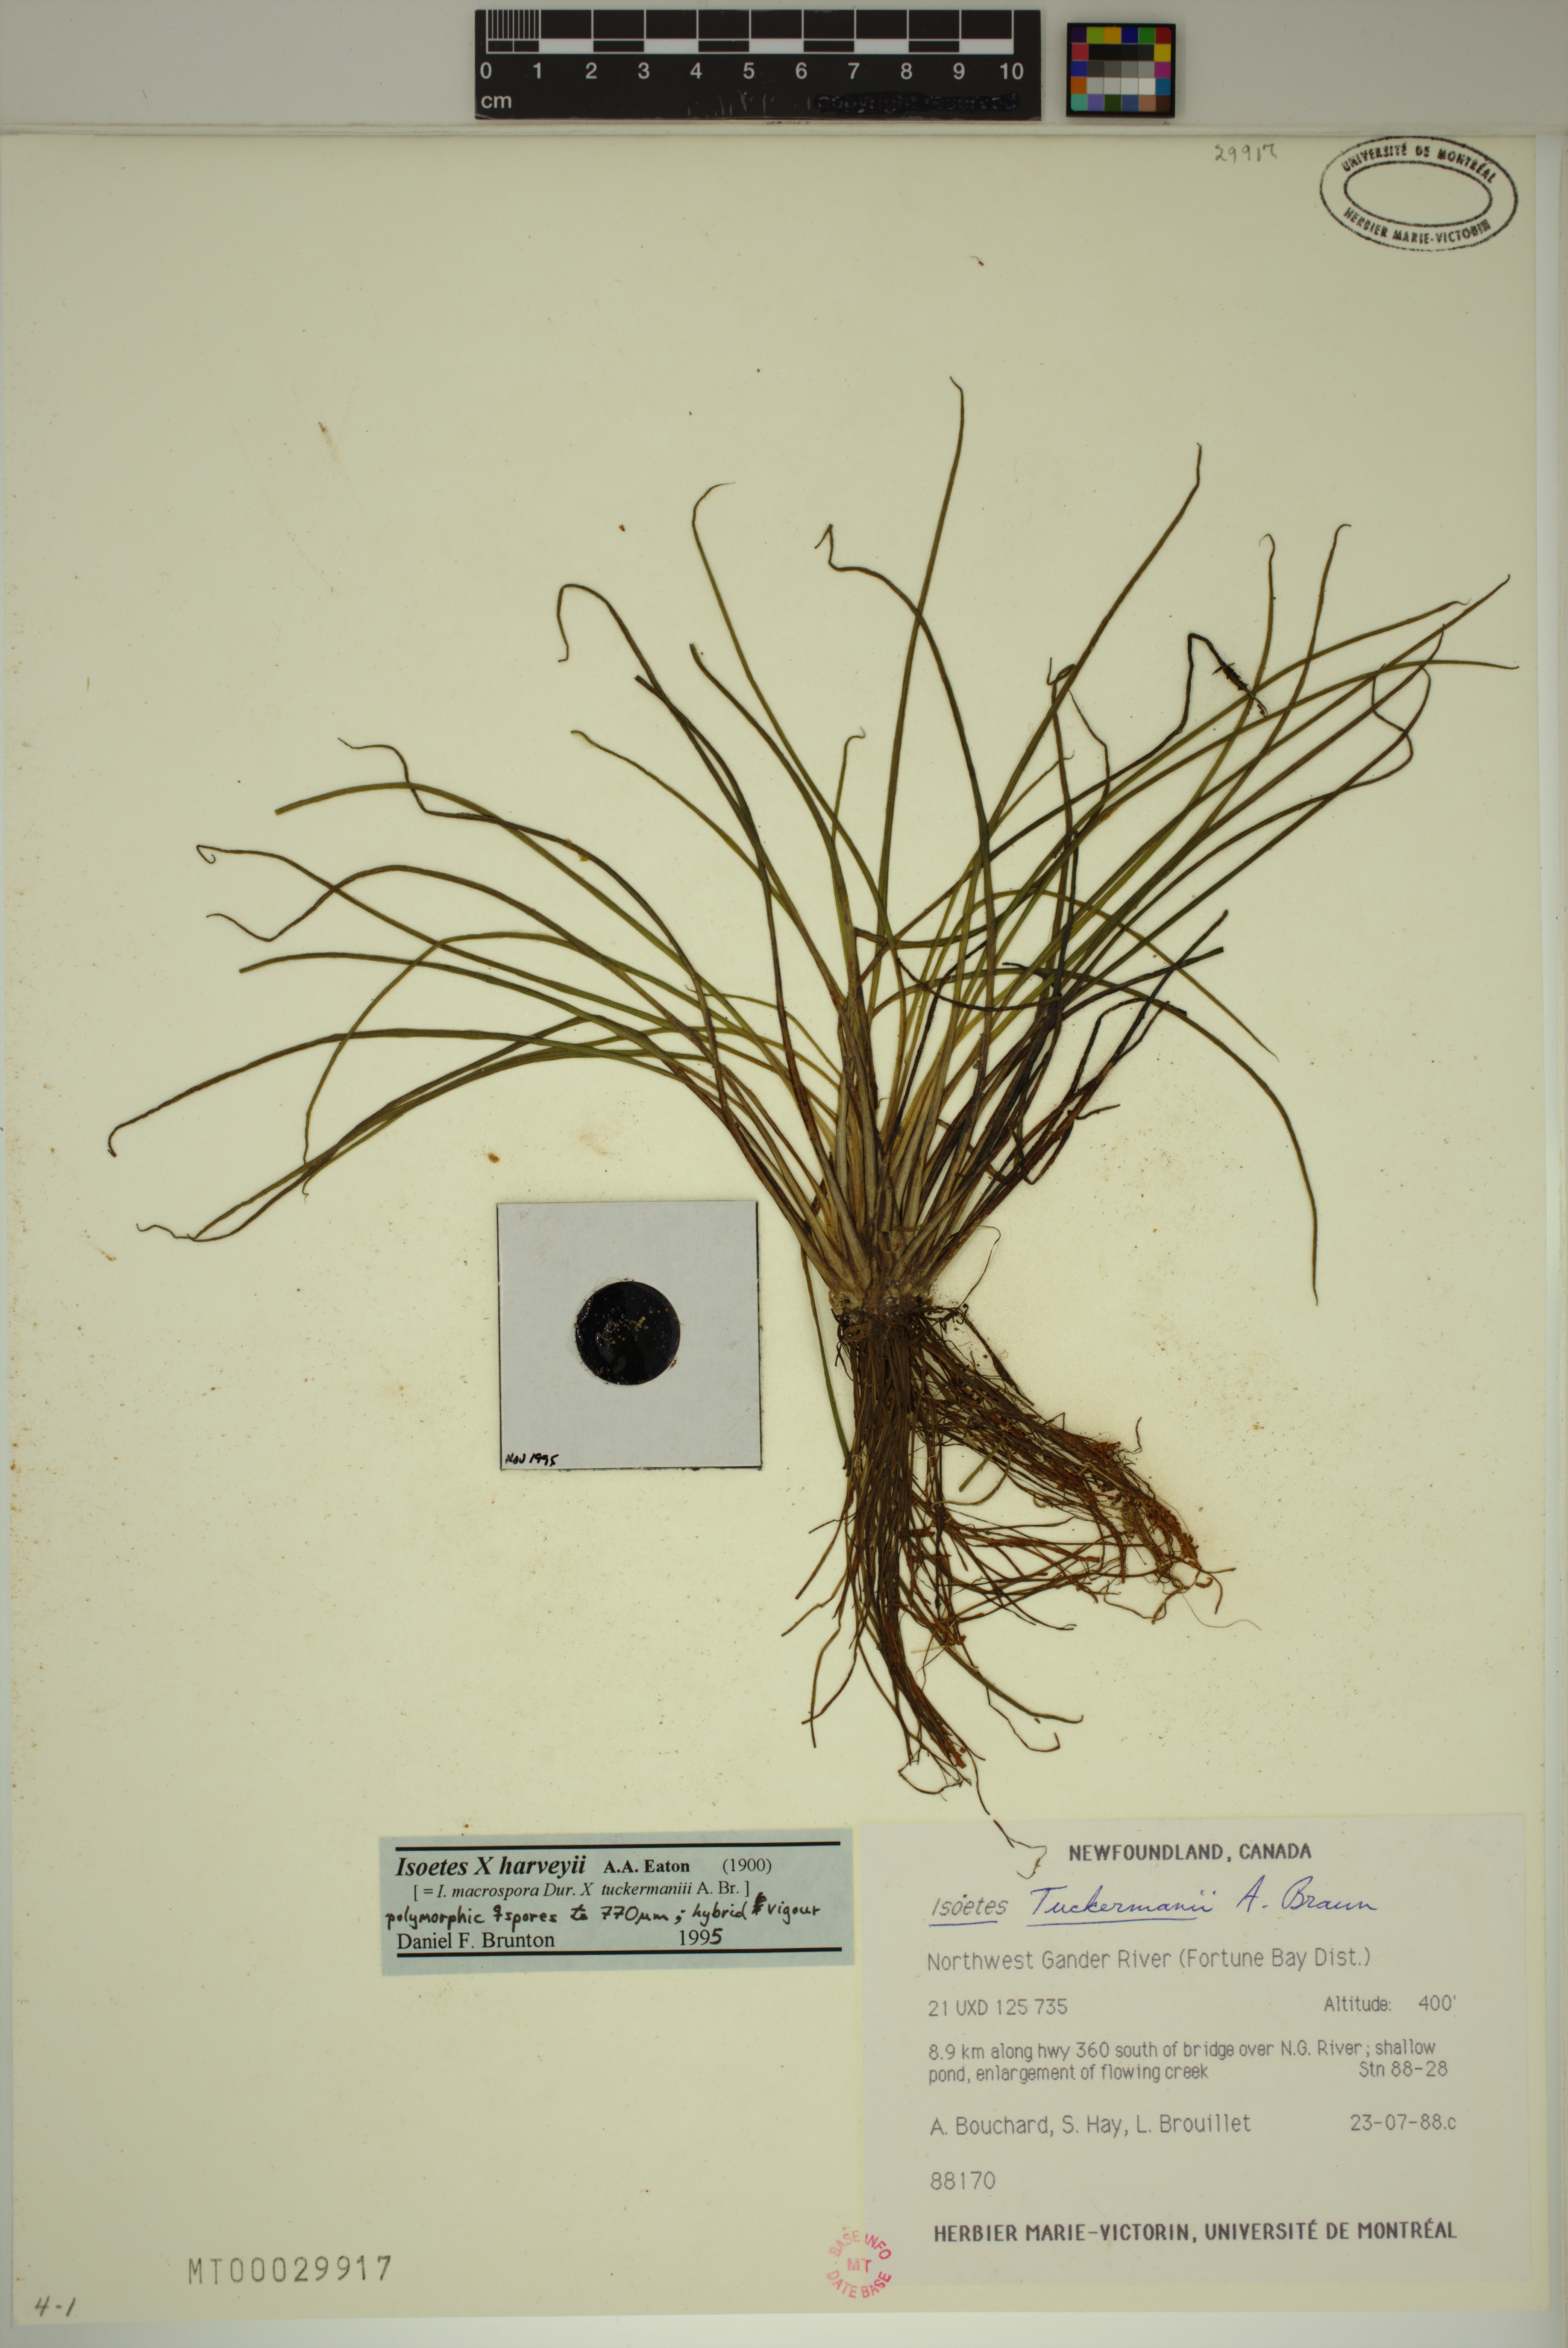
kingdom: Plantae
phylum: Tracheophyta
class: Lycopodiopsida
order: Isoetales
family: Isoetaceae
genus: Isoetes
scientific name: Isoetes harveyi
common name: Harvey's quillwort
